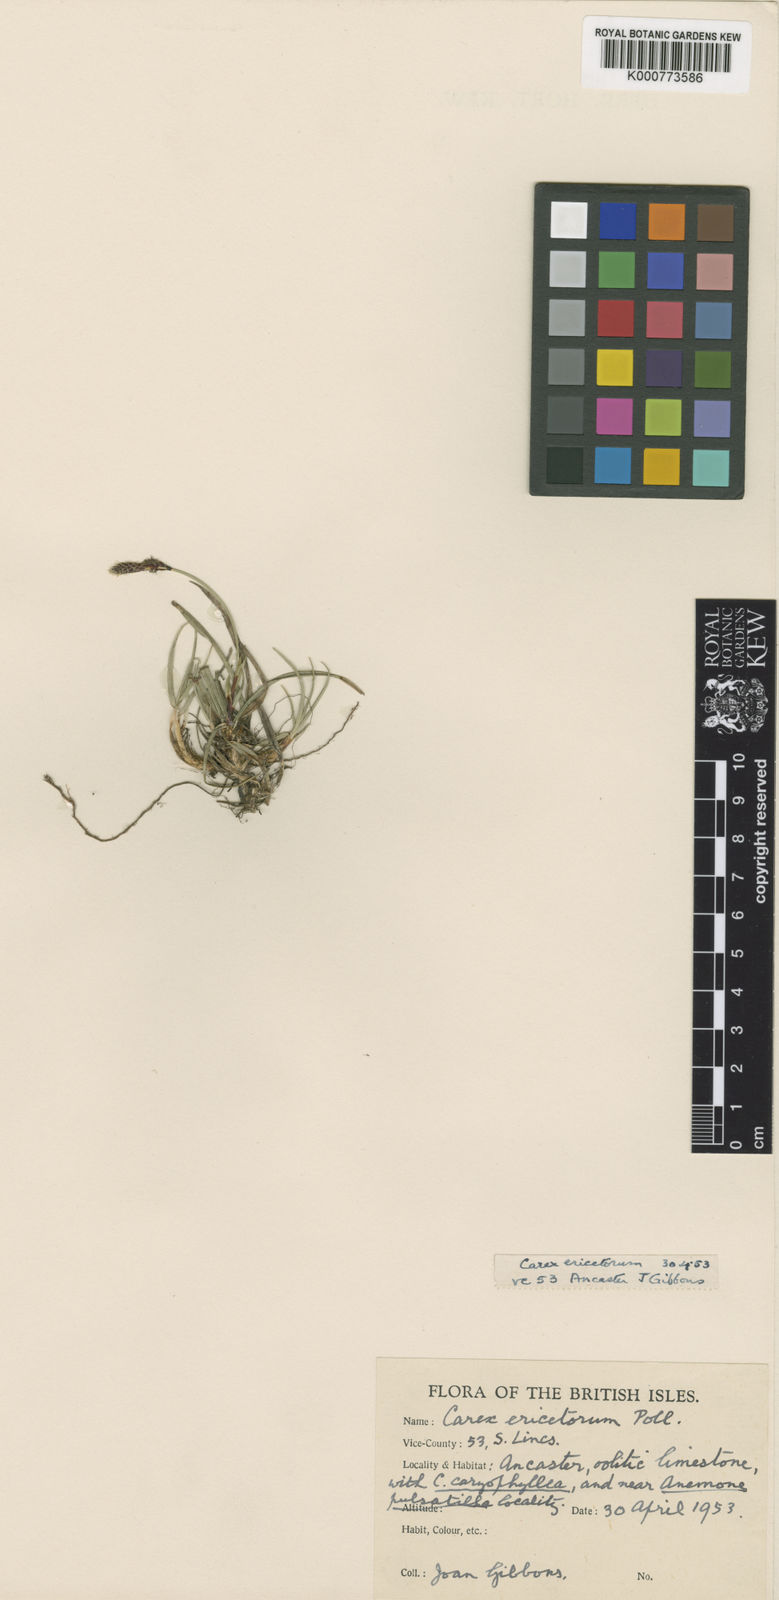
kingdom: Plantae
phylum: Tracheophyta
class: Liliopsida
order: Poales
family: Cyperaceae
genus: Carex
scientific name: Carex ericetorum
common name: Rare spring-sedge
